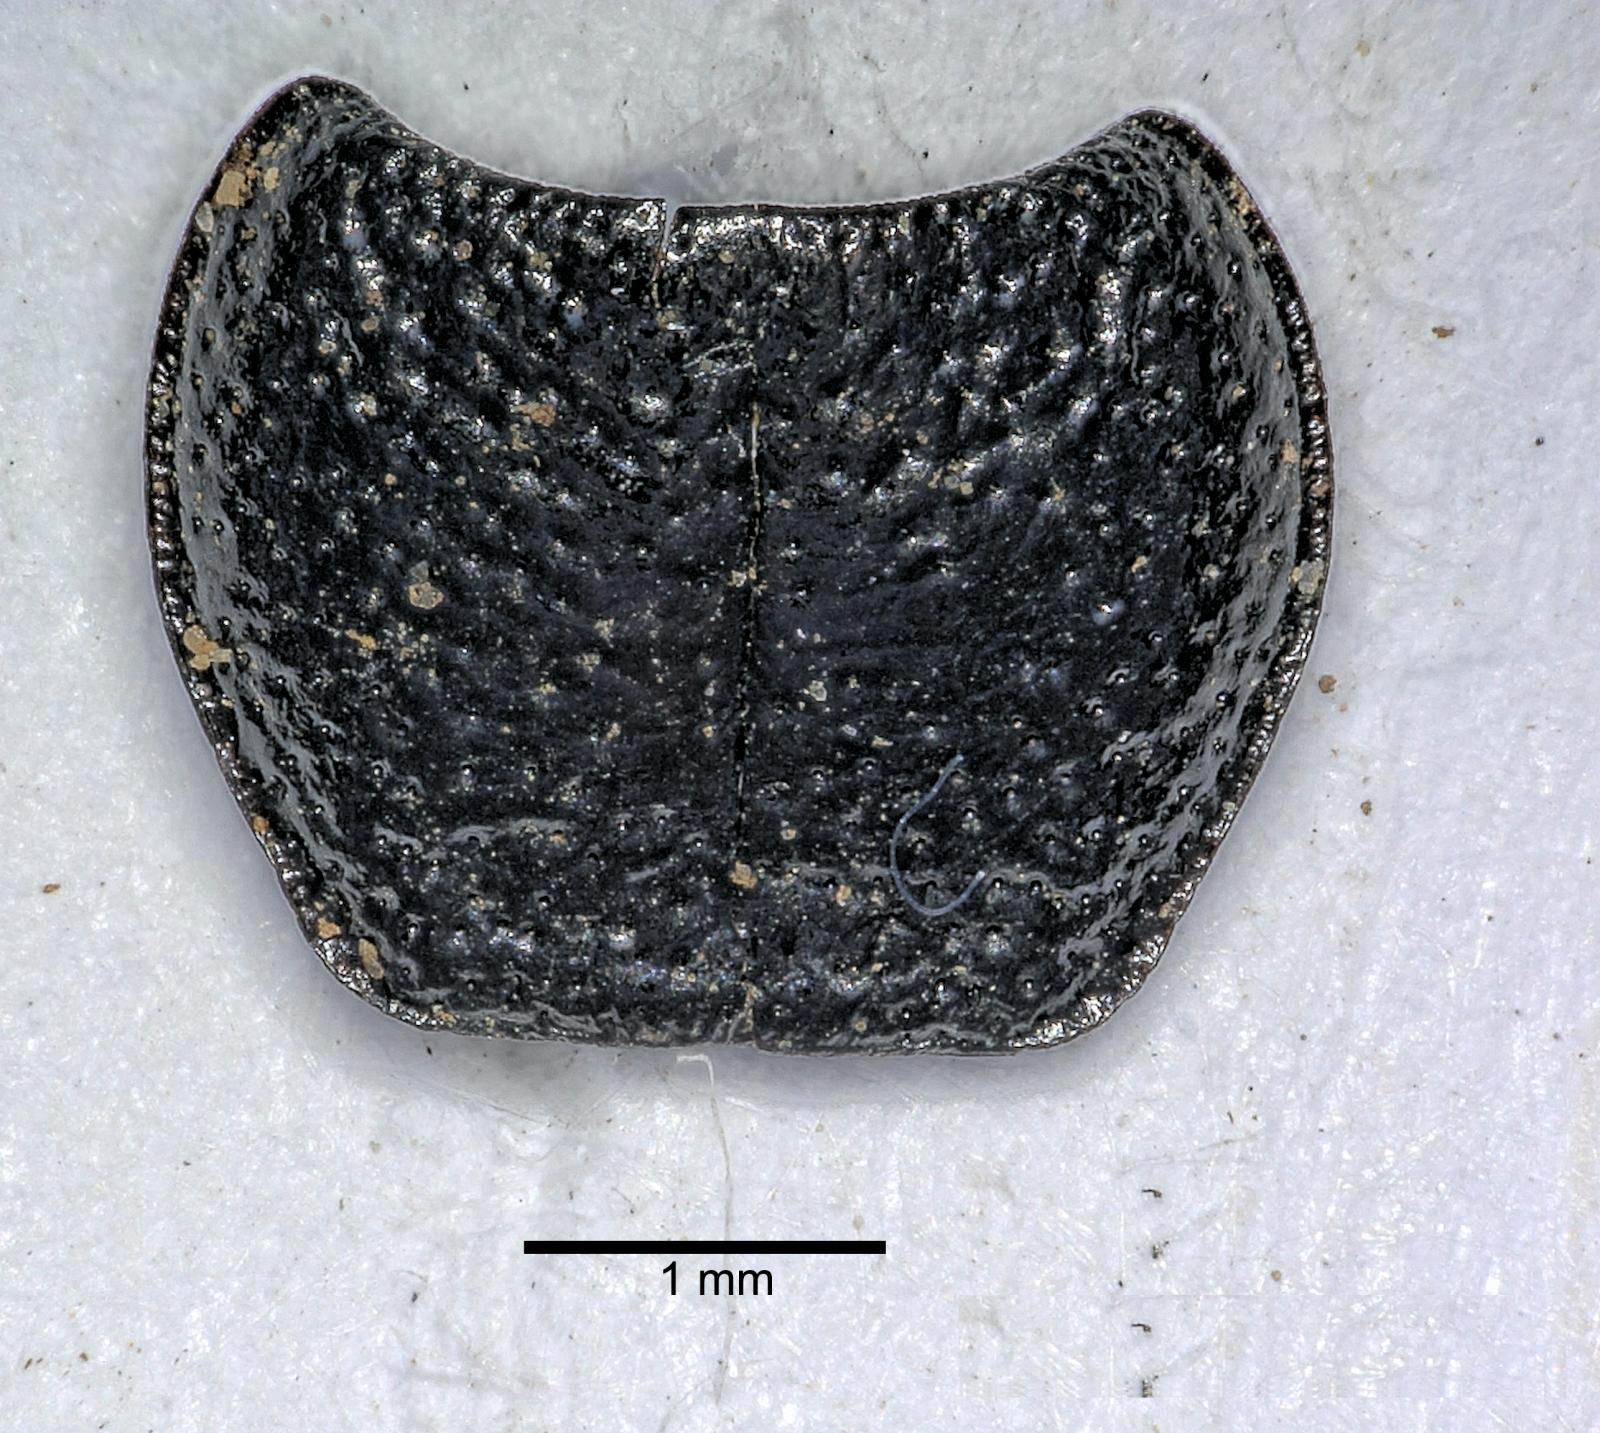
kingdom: Animalia
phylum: Arthropoda
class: Insecta
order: Coleoptera
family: Carabidae
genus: Dicheirus
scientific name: Dicheirus dilatatus
